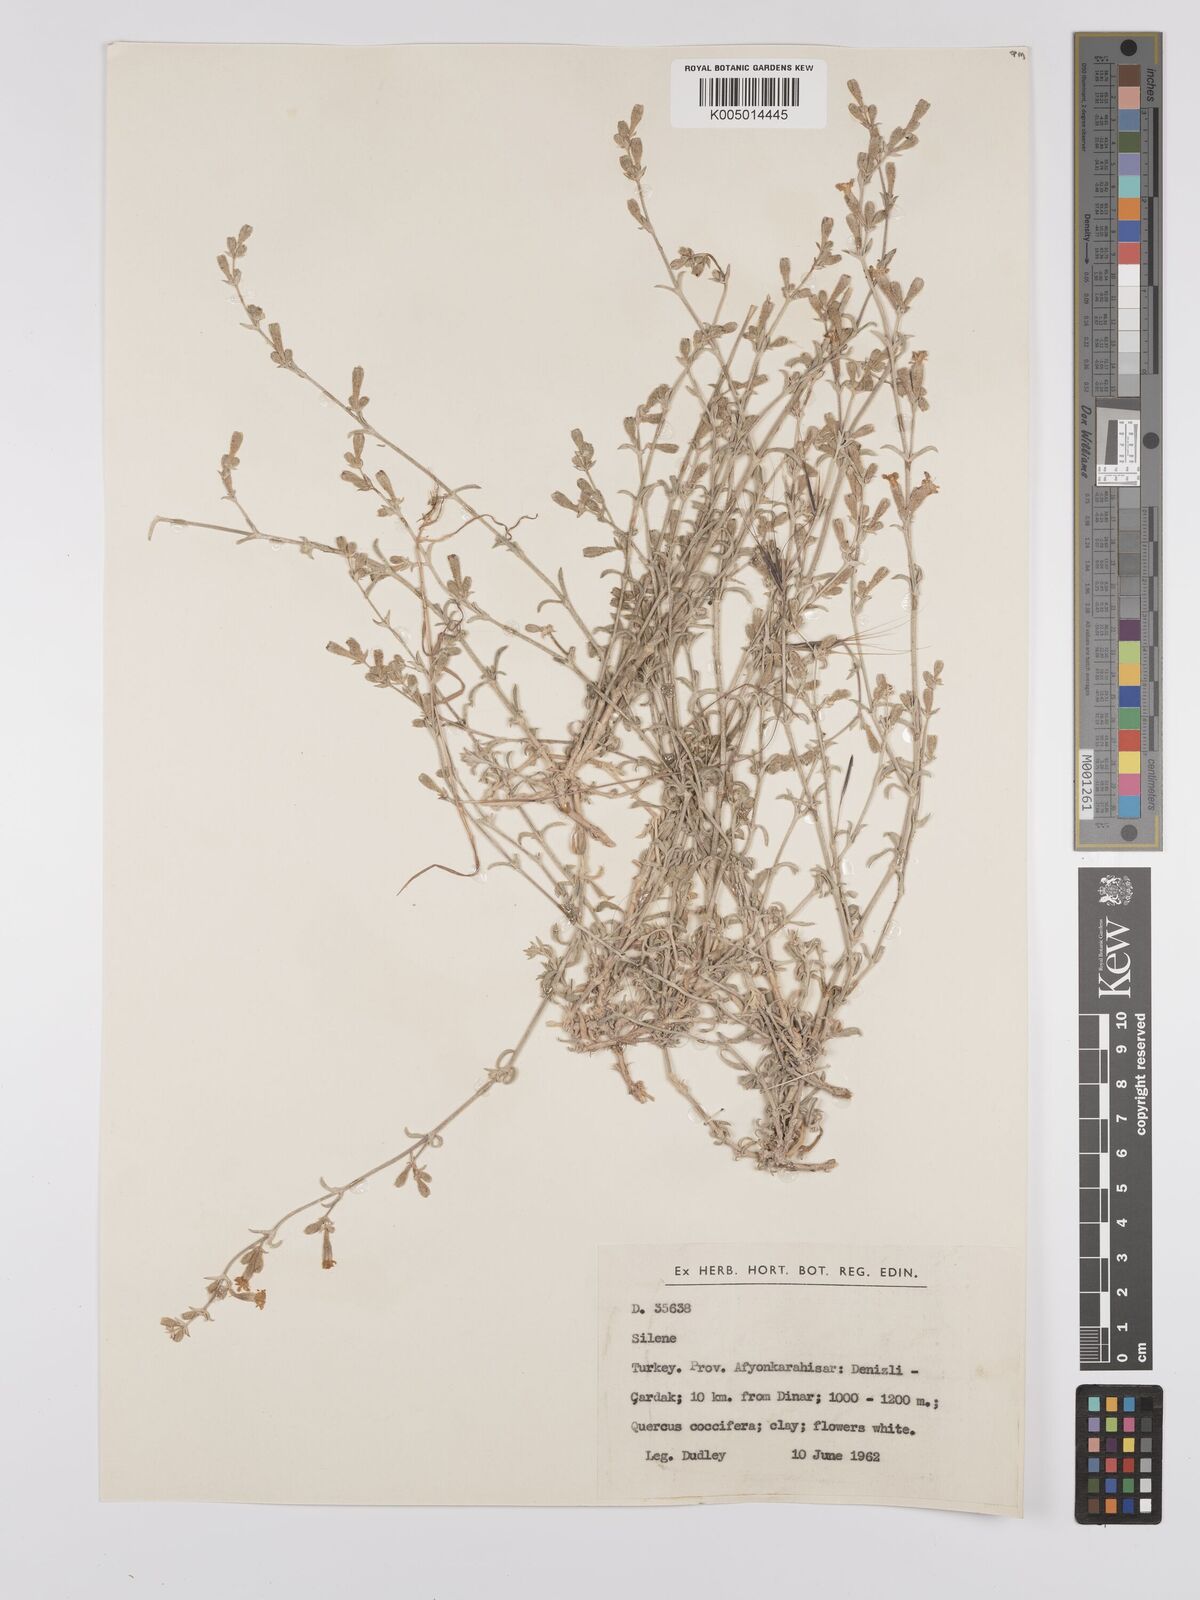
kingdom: Plantae
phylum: Tracheophyta
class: Magnoliopsida
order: Caryophyllales
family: Caryophyllaceae
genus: Silene
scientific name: Silene
